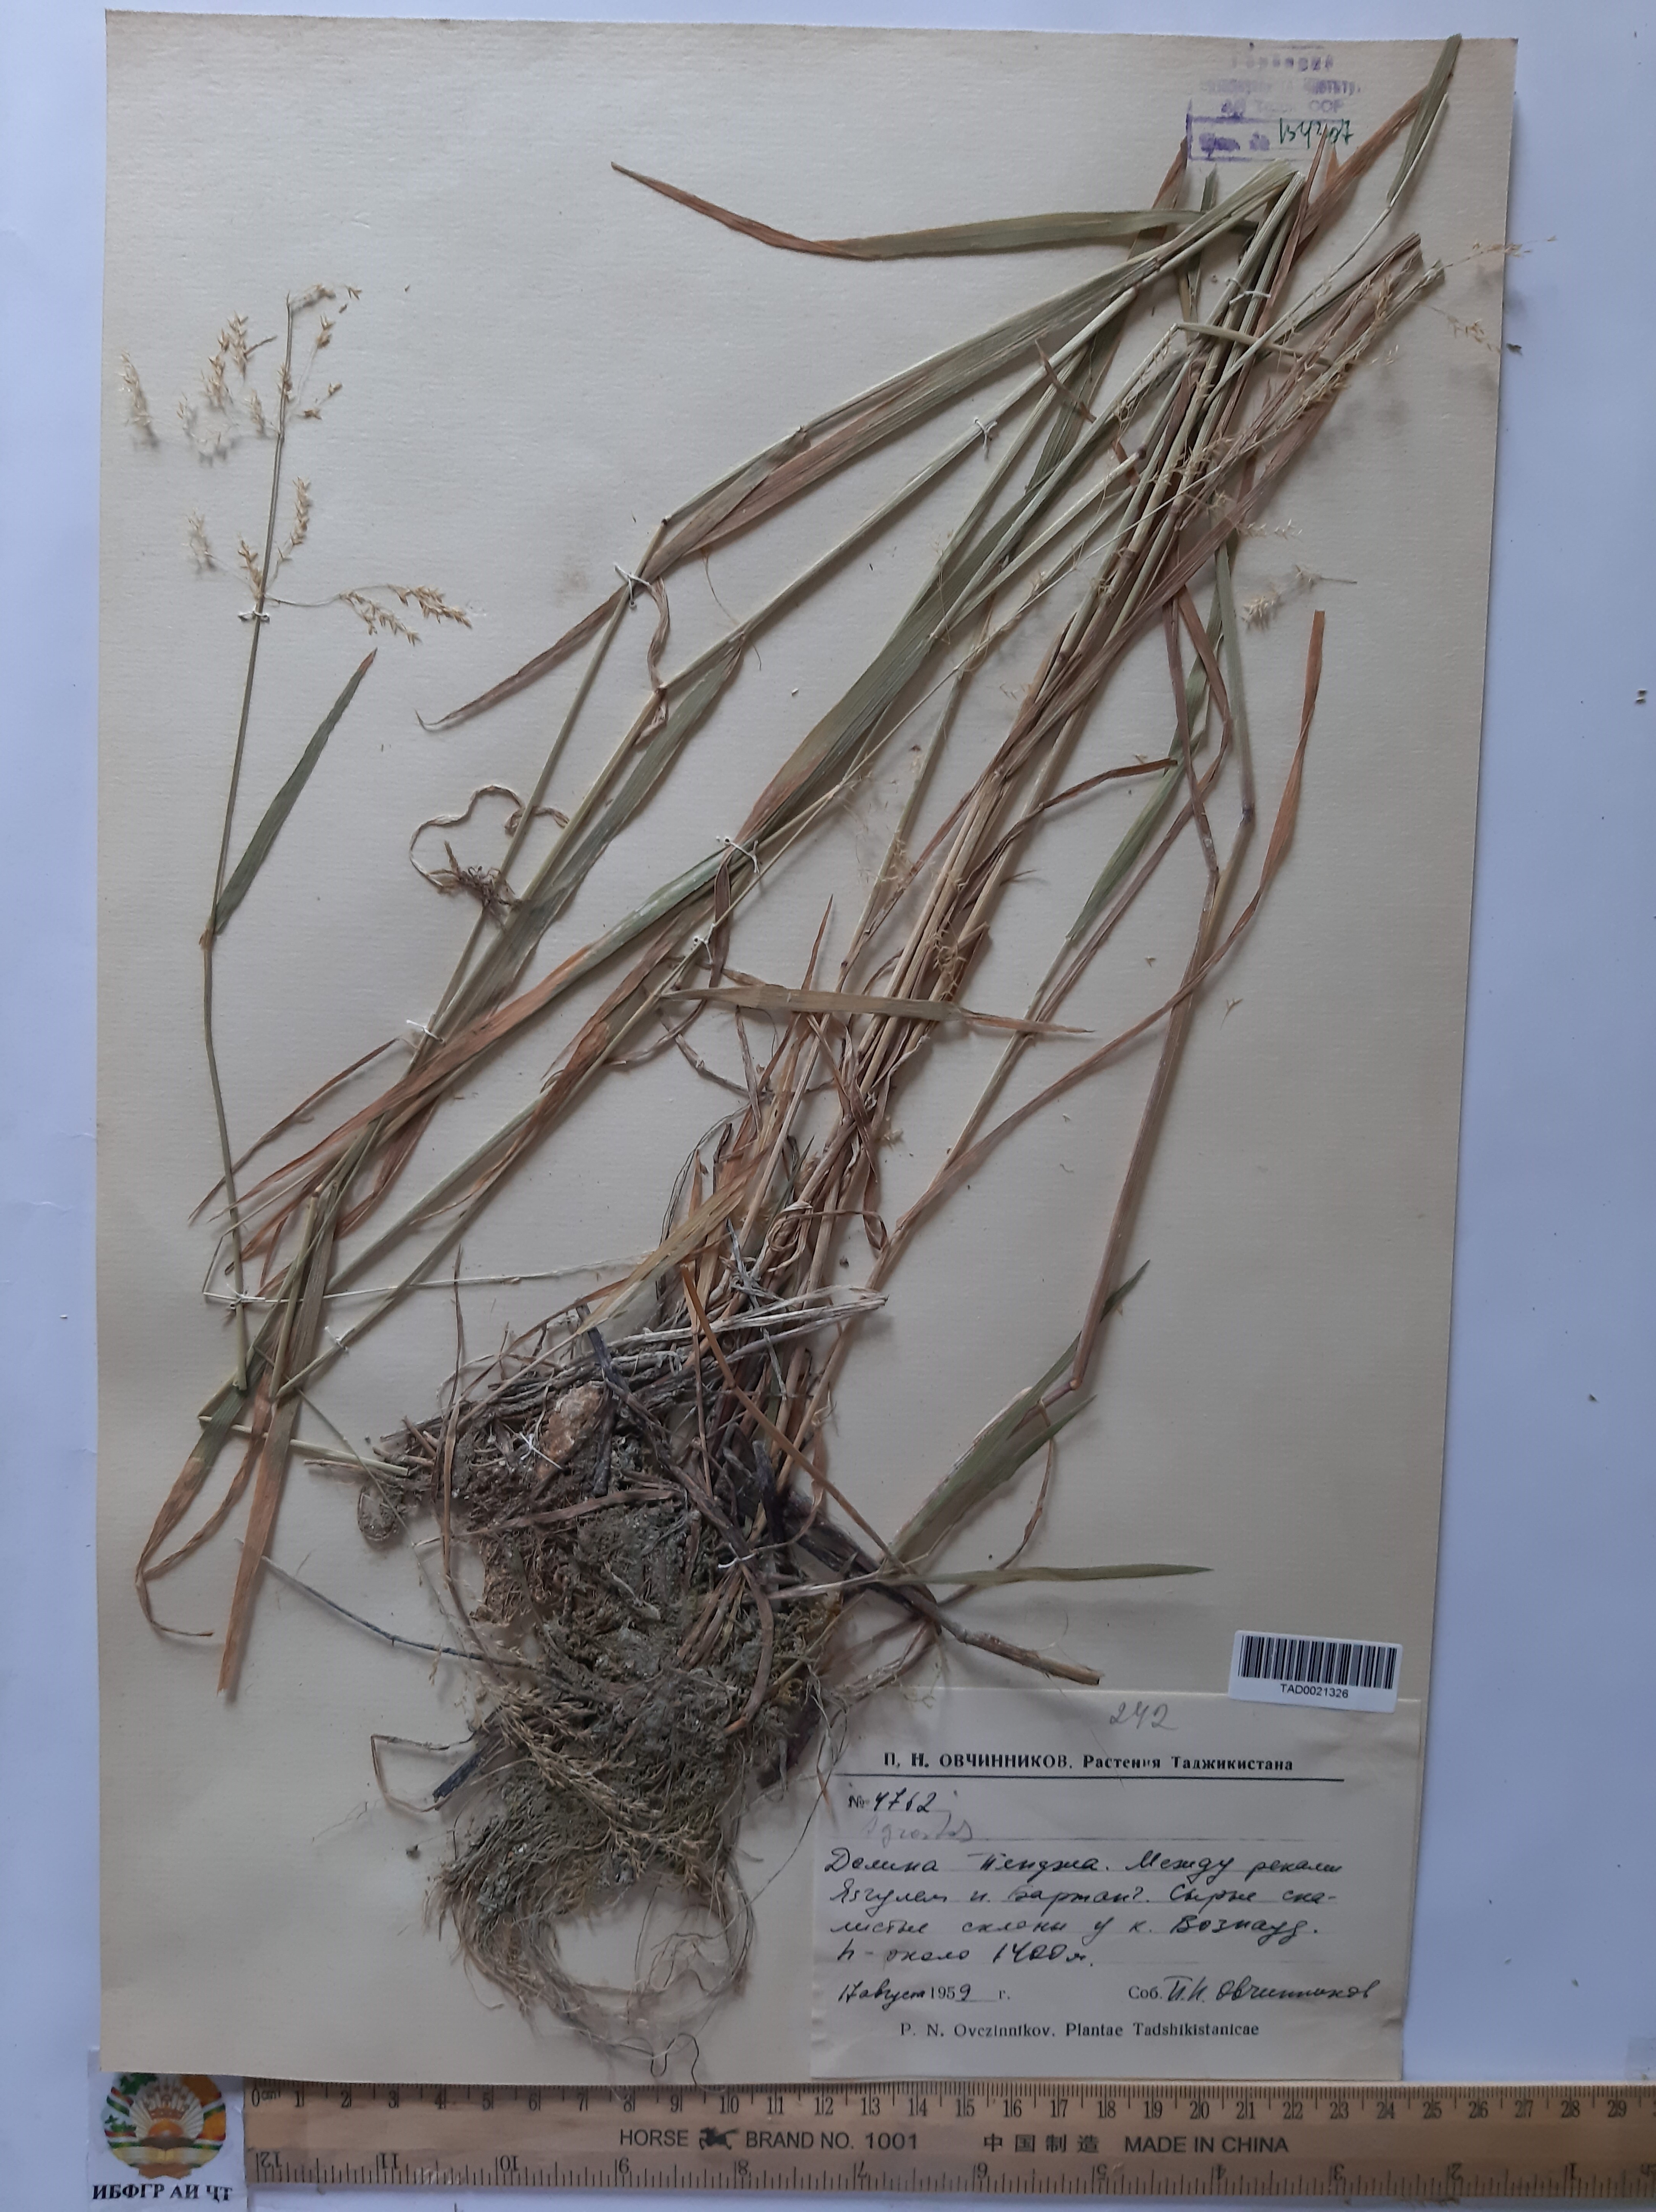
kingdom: Plantae
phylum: Tracheophyta
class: Liliopsida
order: Poales
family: Poaceae
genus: Poa
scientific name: Poa nemoralis
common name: Wood bluegrass
